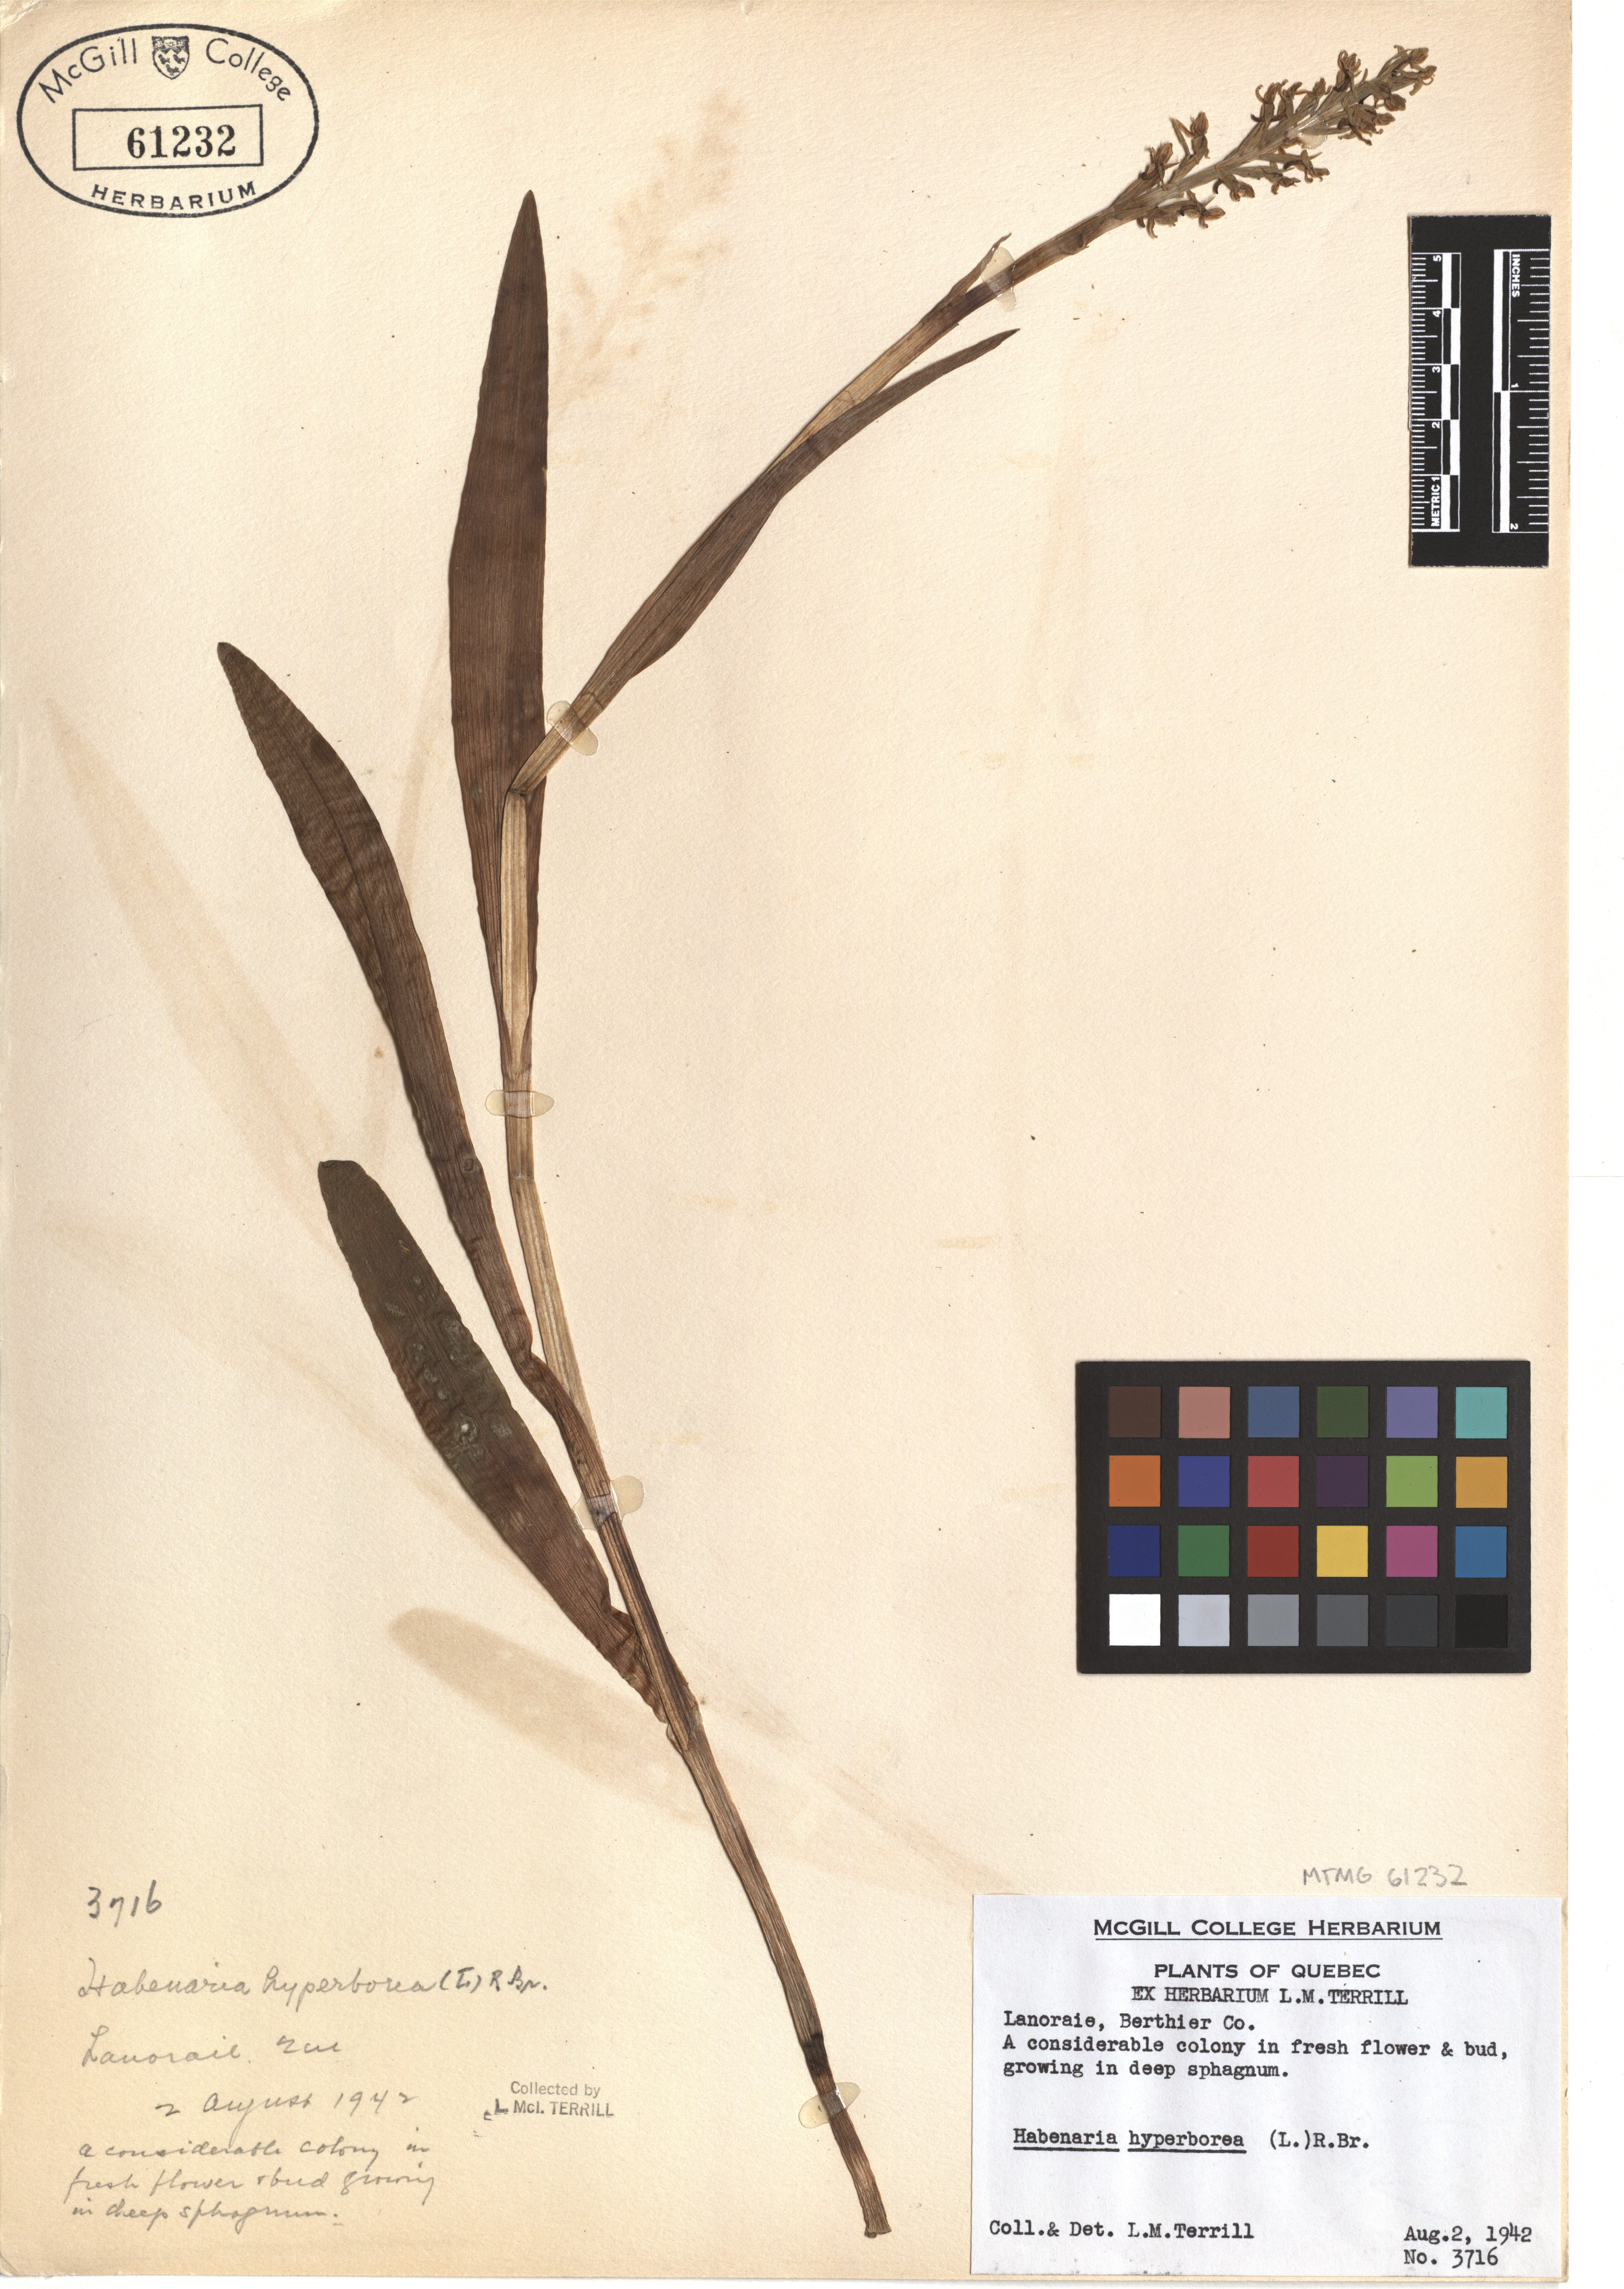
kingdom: Plantae
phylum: Tracheophyta
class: Liliopsida
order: Asparagales
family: Orchidaceae
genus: Platanthera
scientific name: Platanthera hyperborea
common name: Northern green orchid
